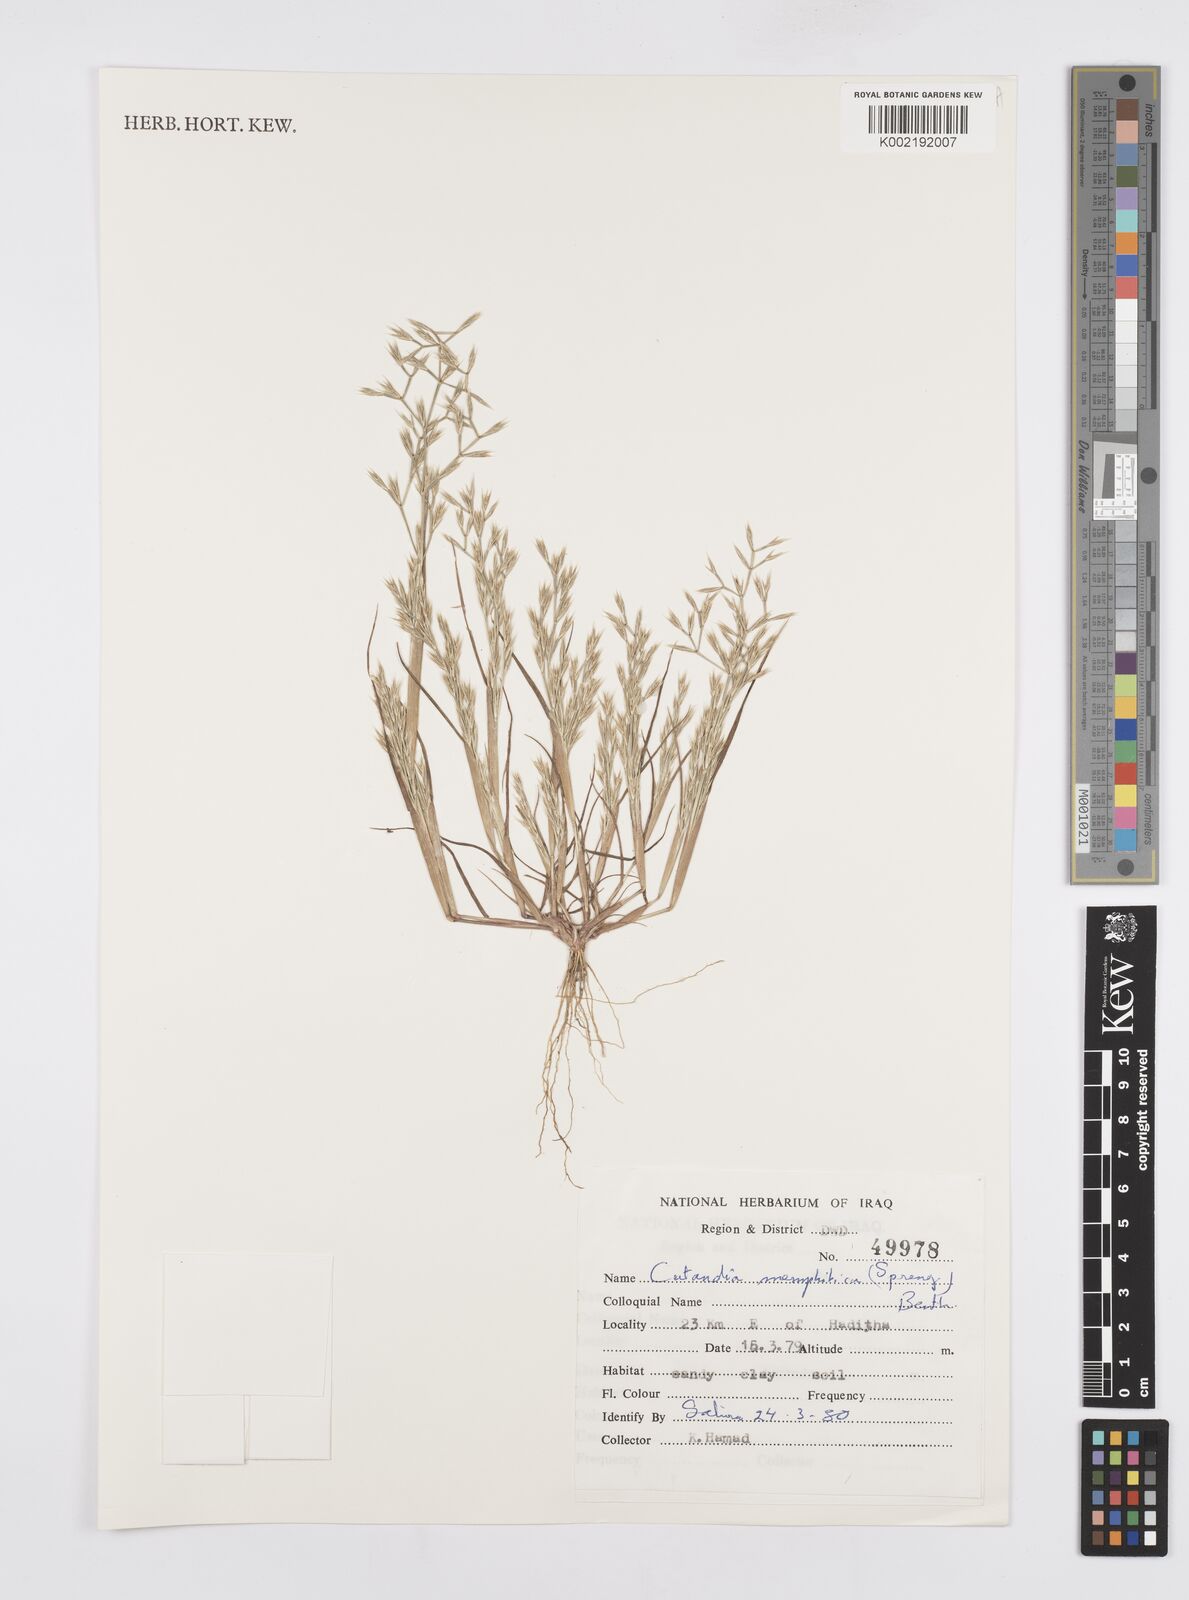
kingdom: Plantae
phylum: Tracheophyta
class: Liliopsida
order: Poales
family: Poaceae
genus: Cutandia
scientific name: Cutandia memphitica
